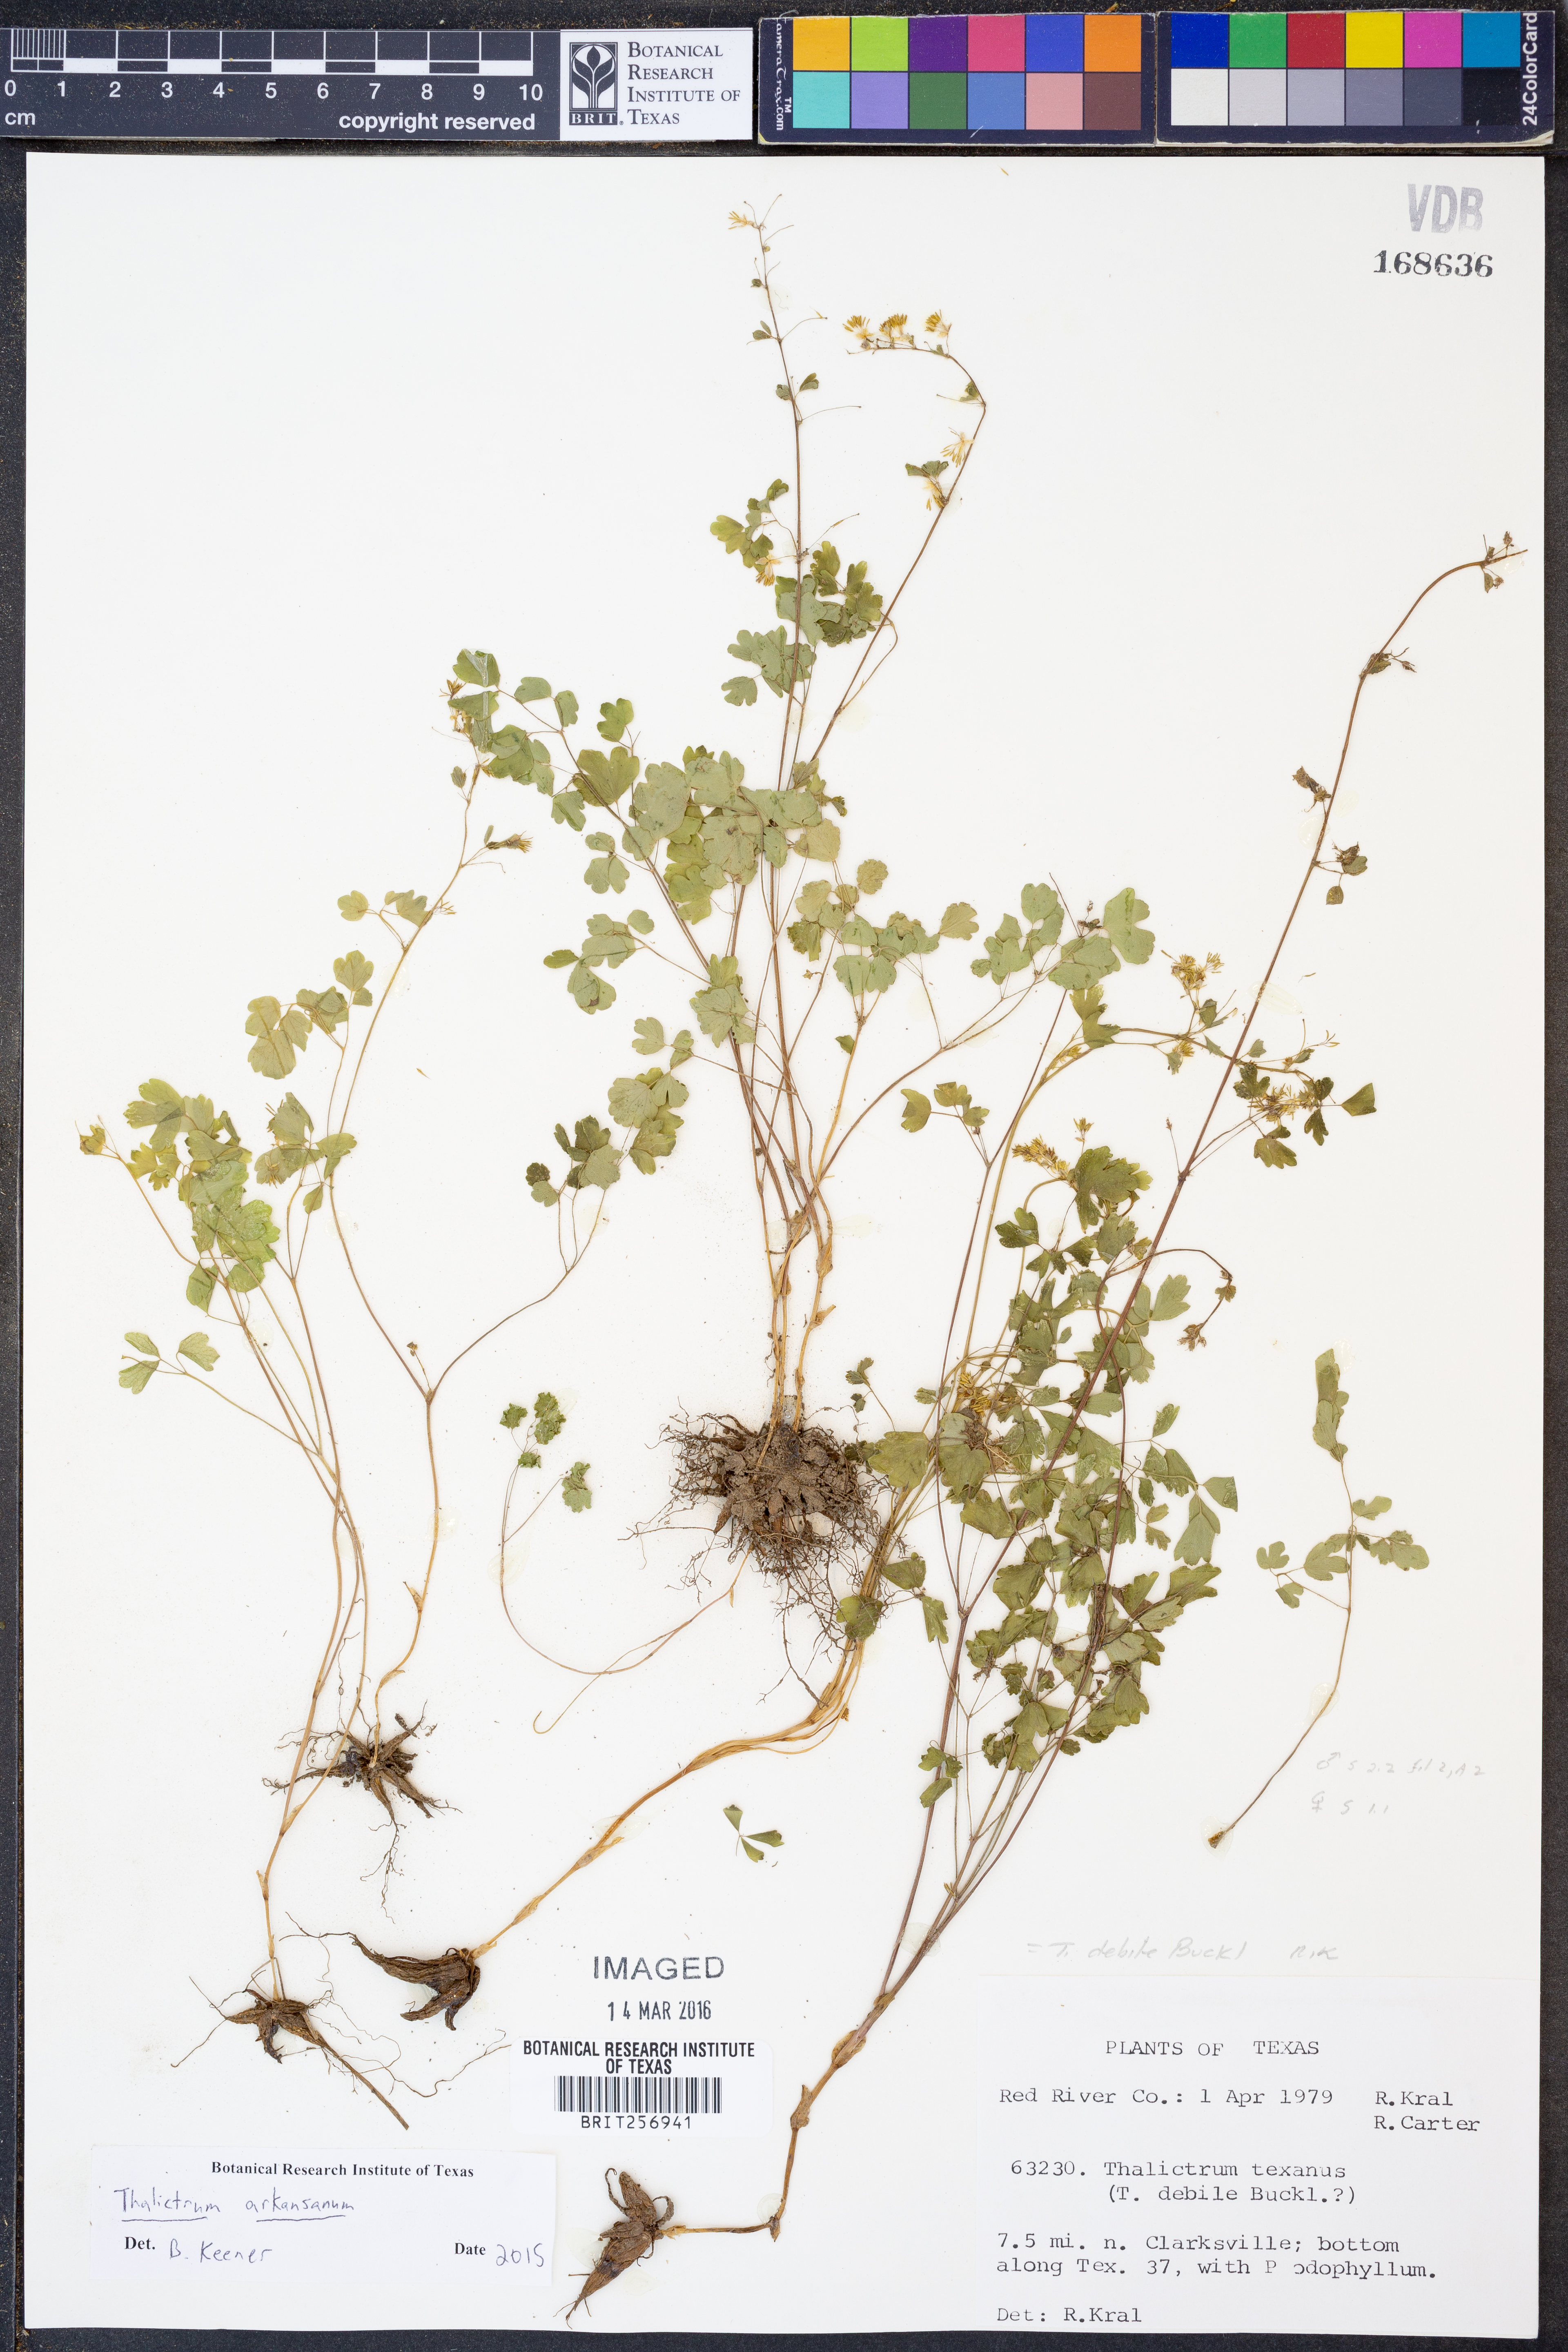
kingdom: Plantae
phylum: Tracheophyta
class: Magnoliopsida
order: Ranunculales
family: Ranunculaceae
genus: Thalictrum
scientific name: Thalictrum arkansanum
